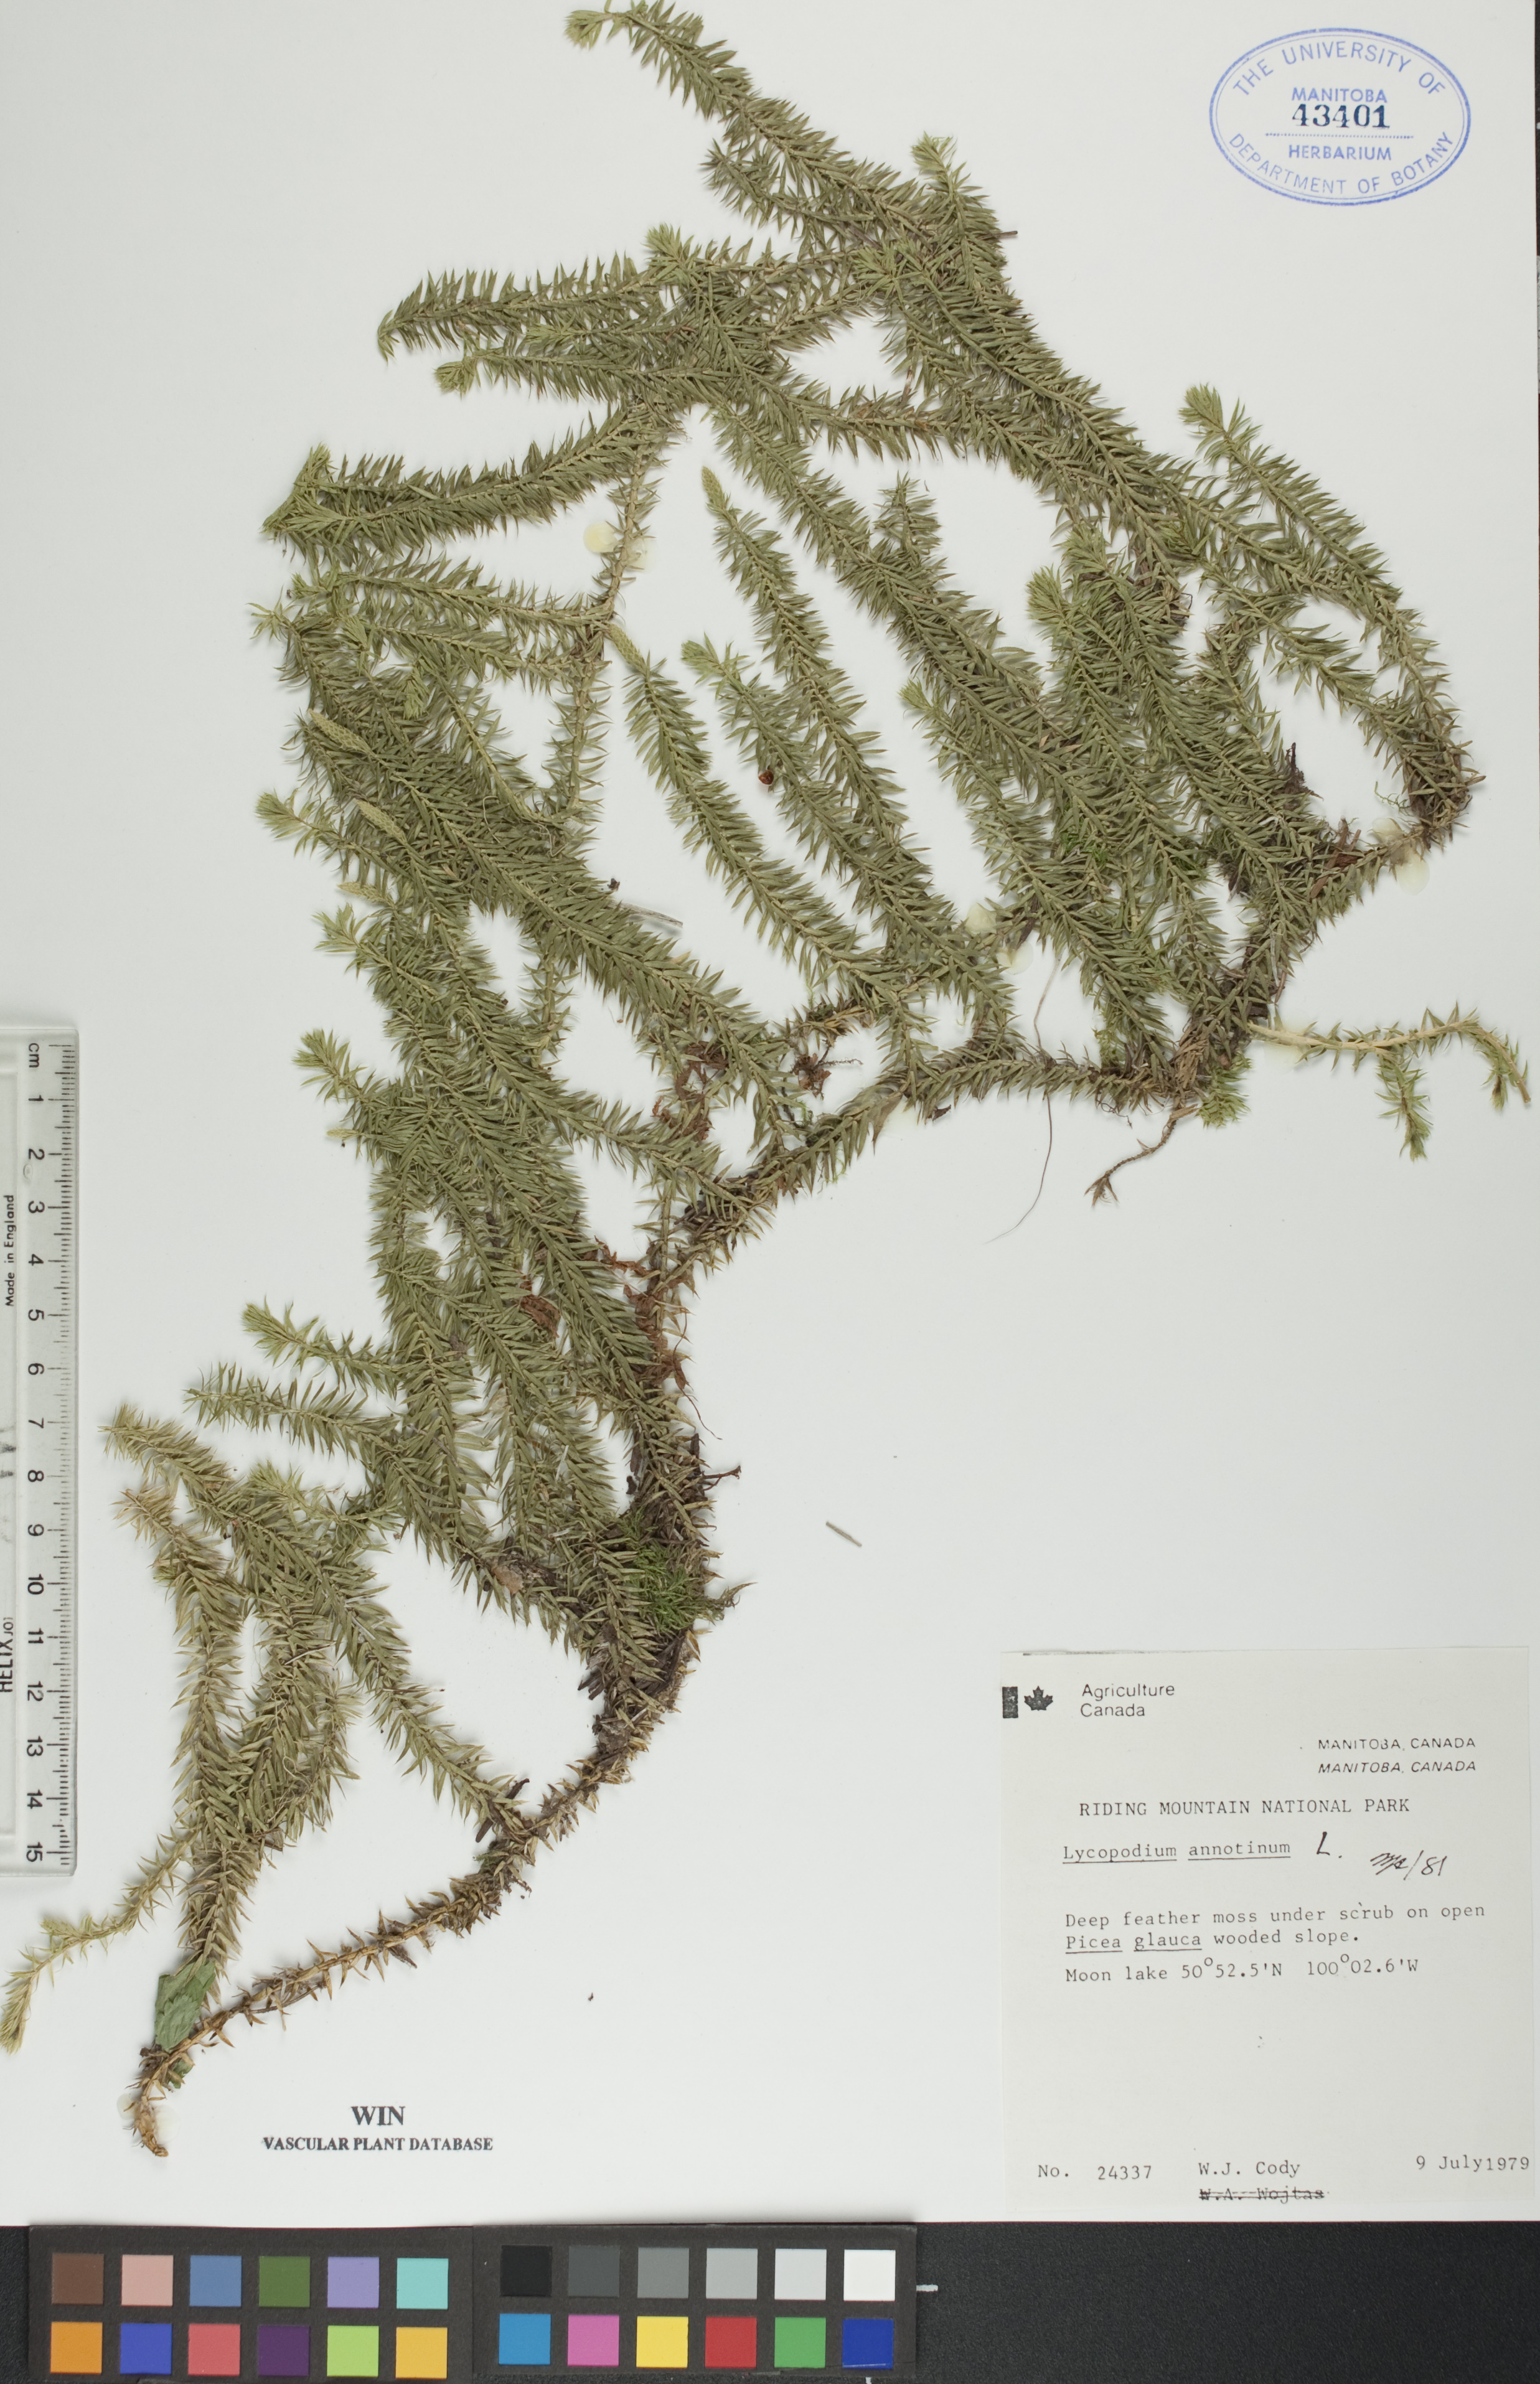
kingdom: Plantae
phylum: Tracheophyta
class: Lycopodiopsida
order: Lycopodiales
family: Lycopodiaceae
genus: Spinulum
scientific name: Spinulum annotinum
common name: Interrupted club-moss
